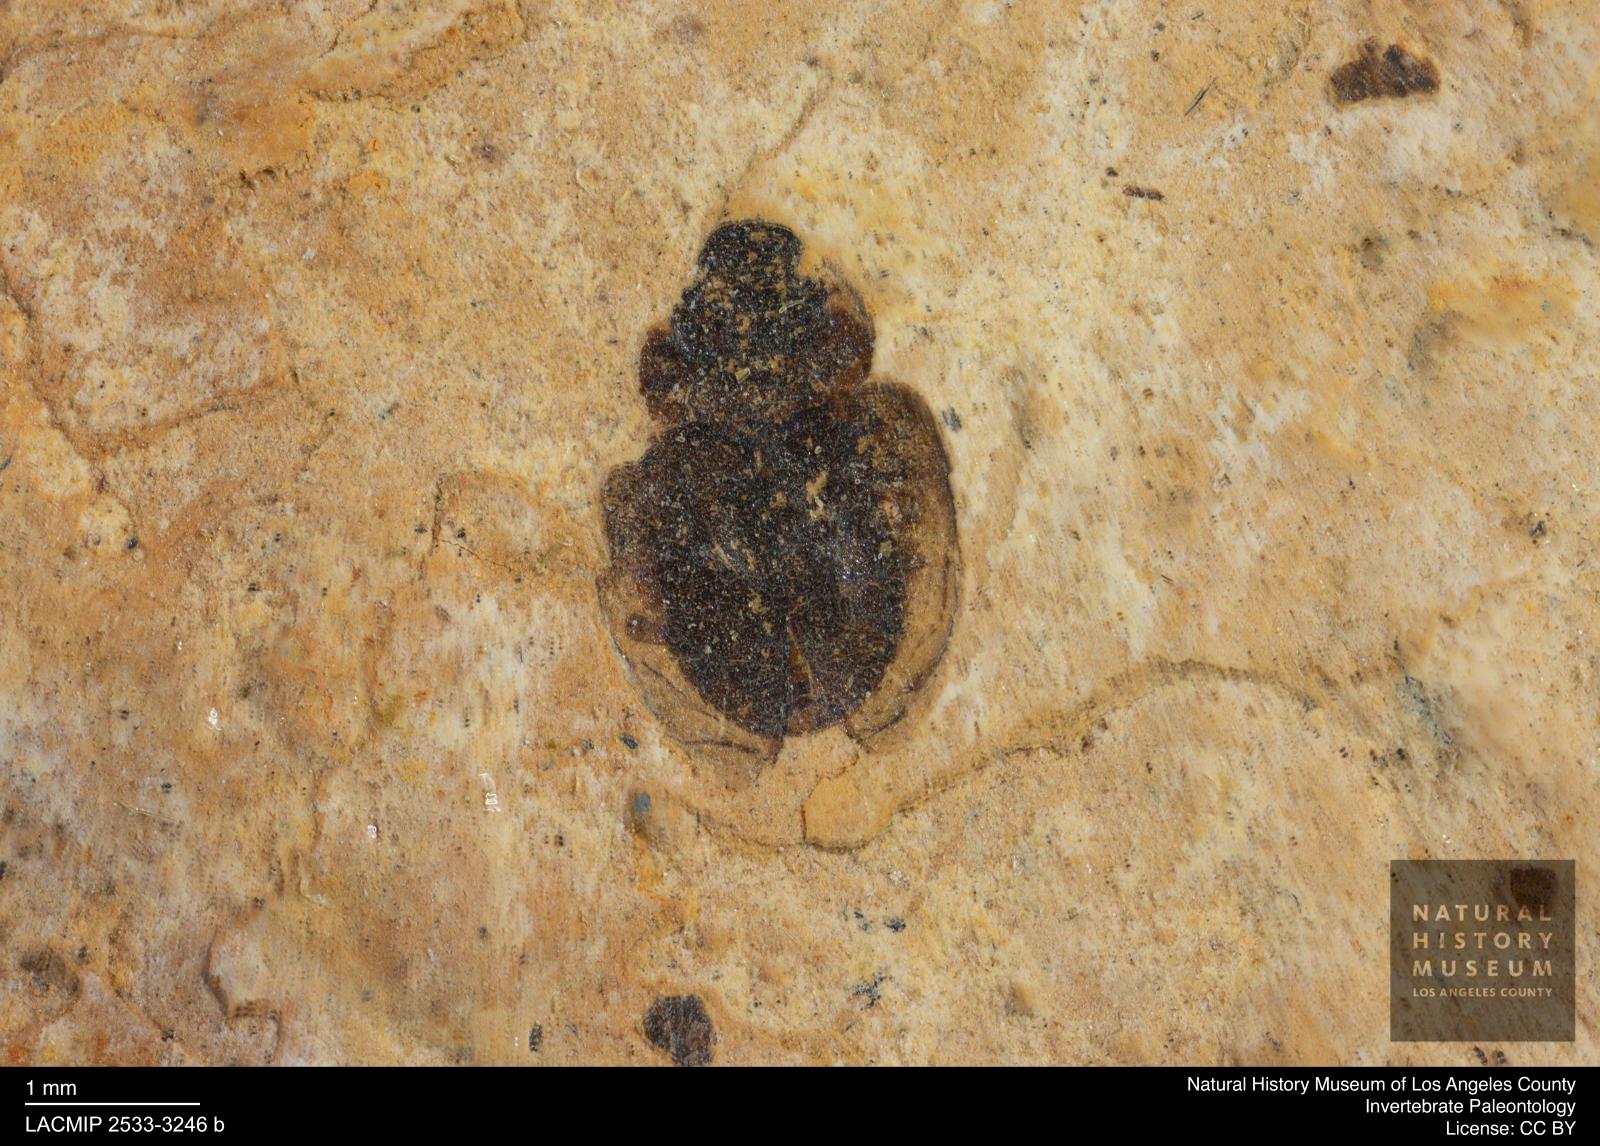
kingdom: Animalia
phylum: Arthropoda
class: Insecta
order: Coleoptera
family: Hydrophilidae
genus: Paracymus
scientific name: Paracymus excitatus
